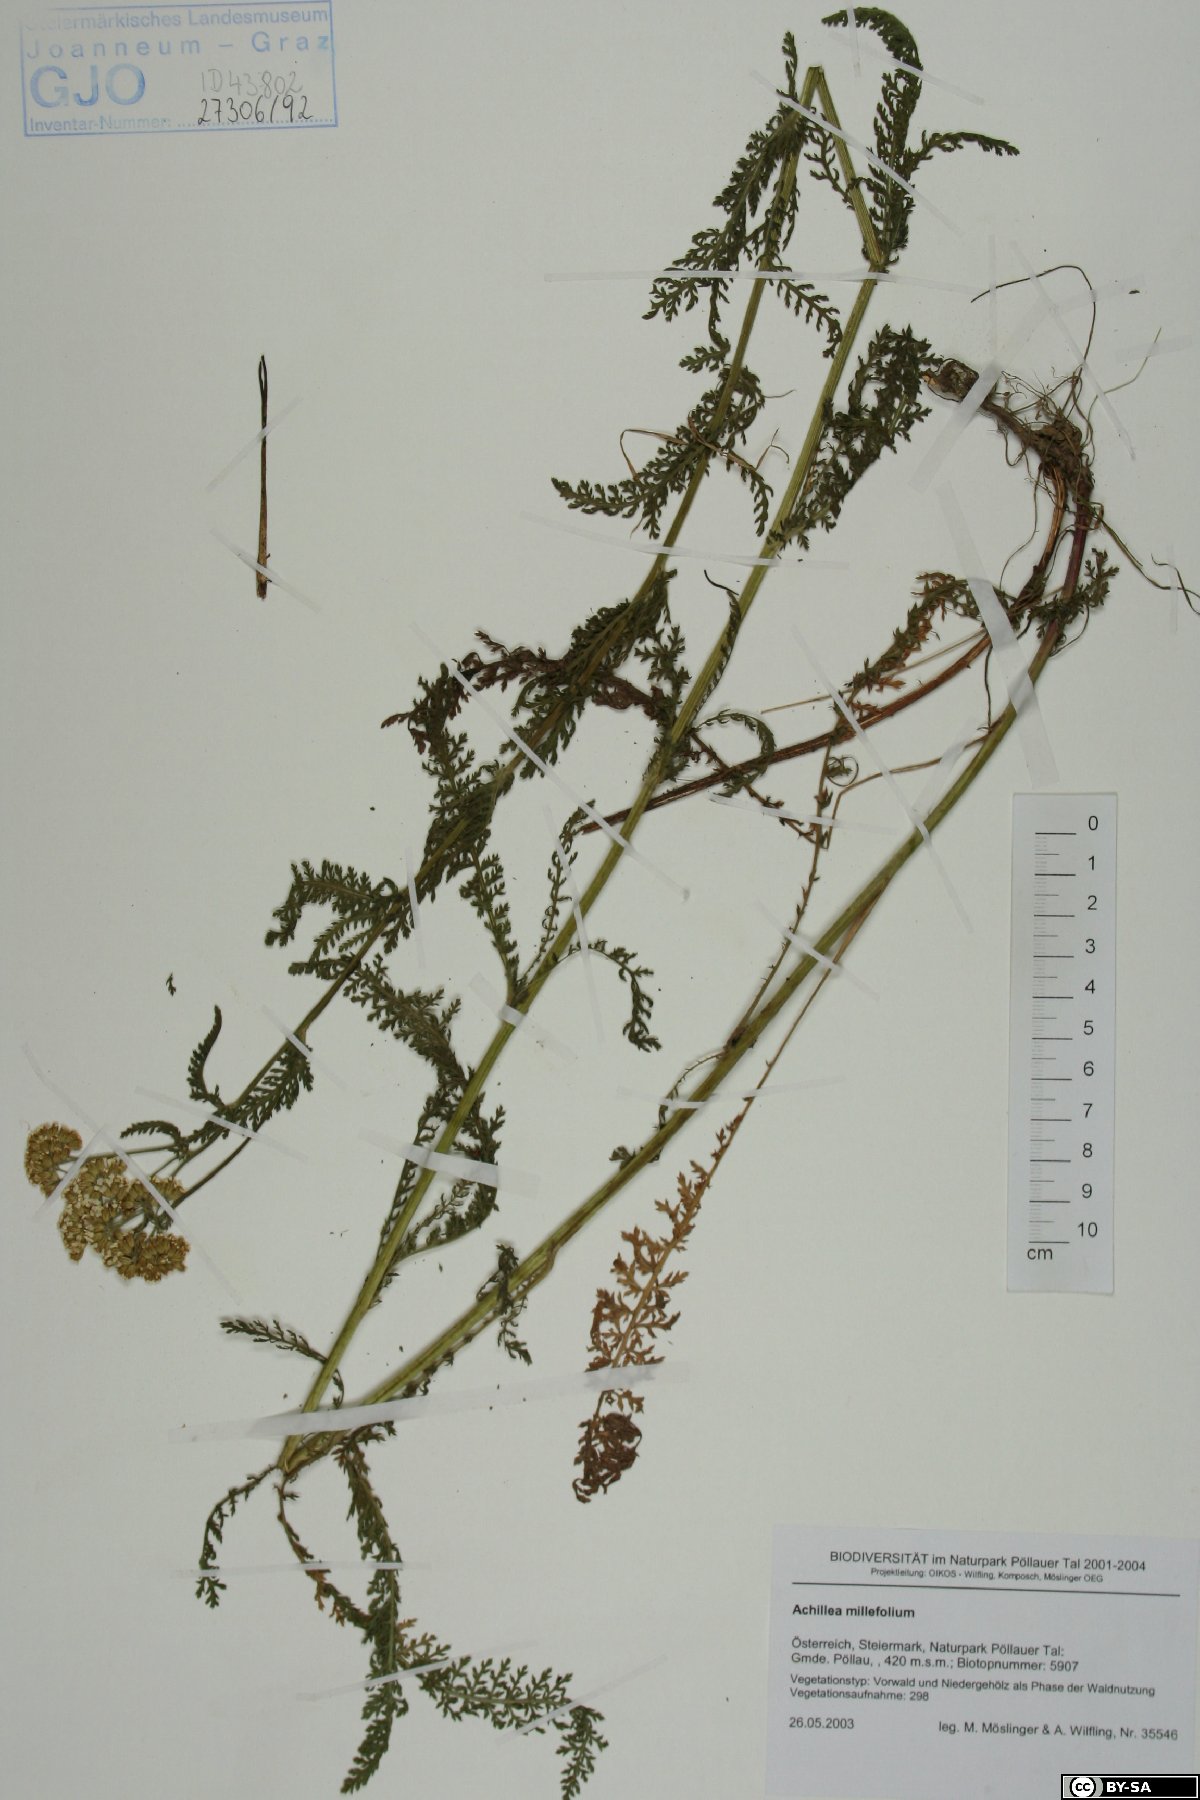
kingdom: Plantae
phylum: Tracheophyta
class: Magnoliopsida
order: Asterales
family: Asteraceae
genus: Achillea
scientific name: Achillea millefolium
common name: Yarrow
